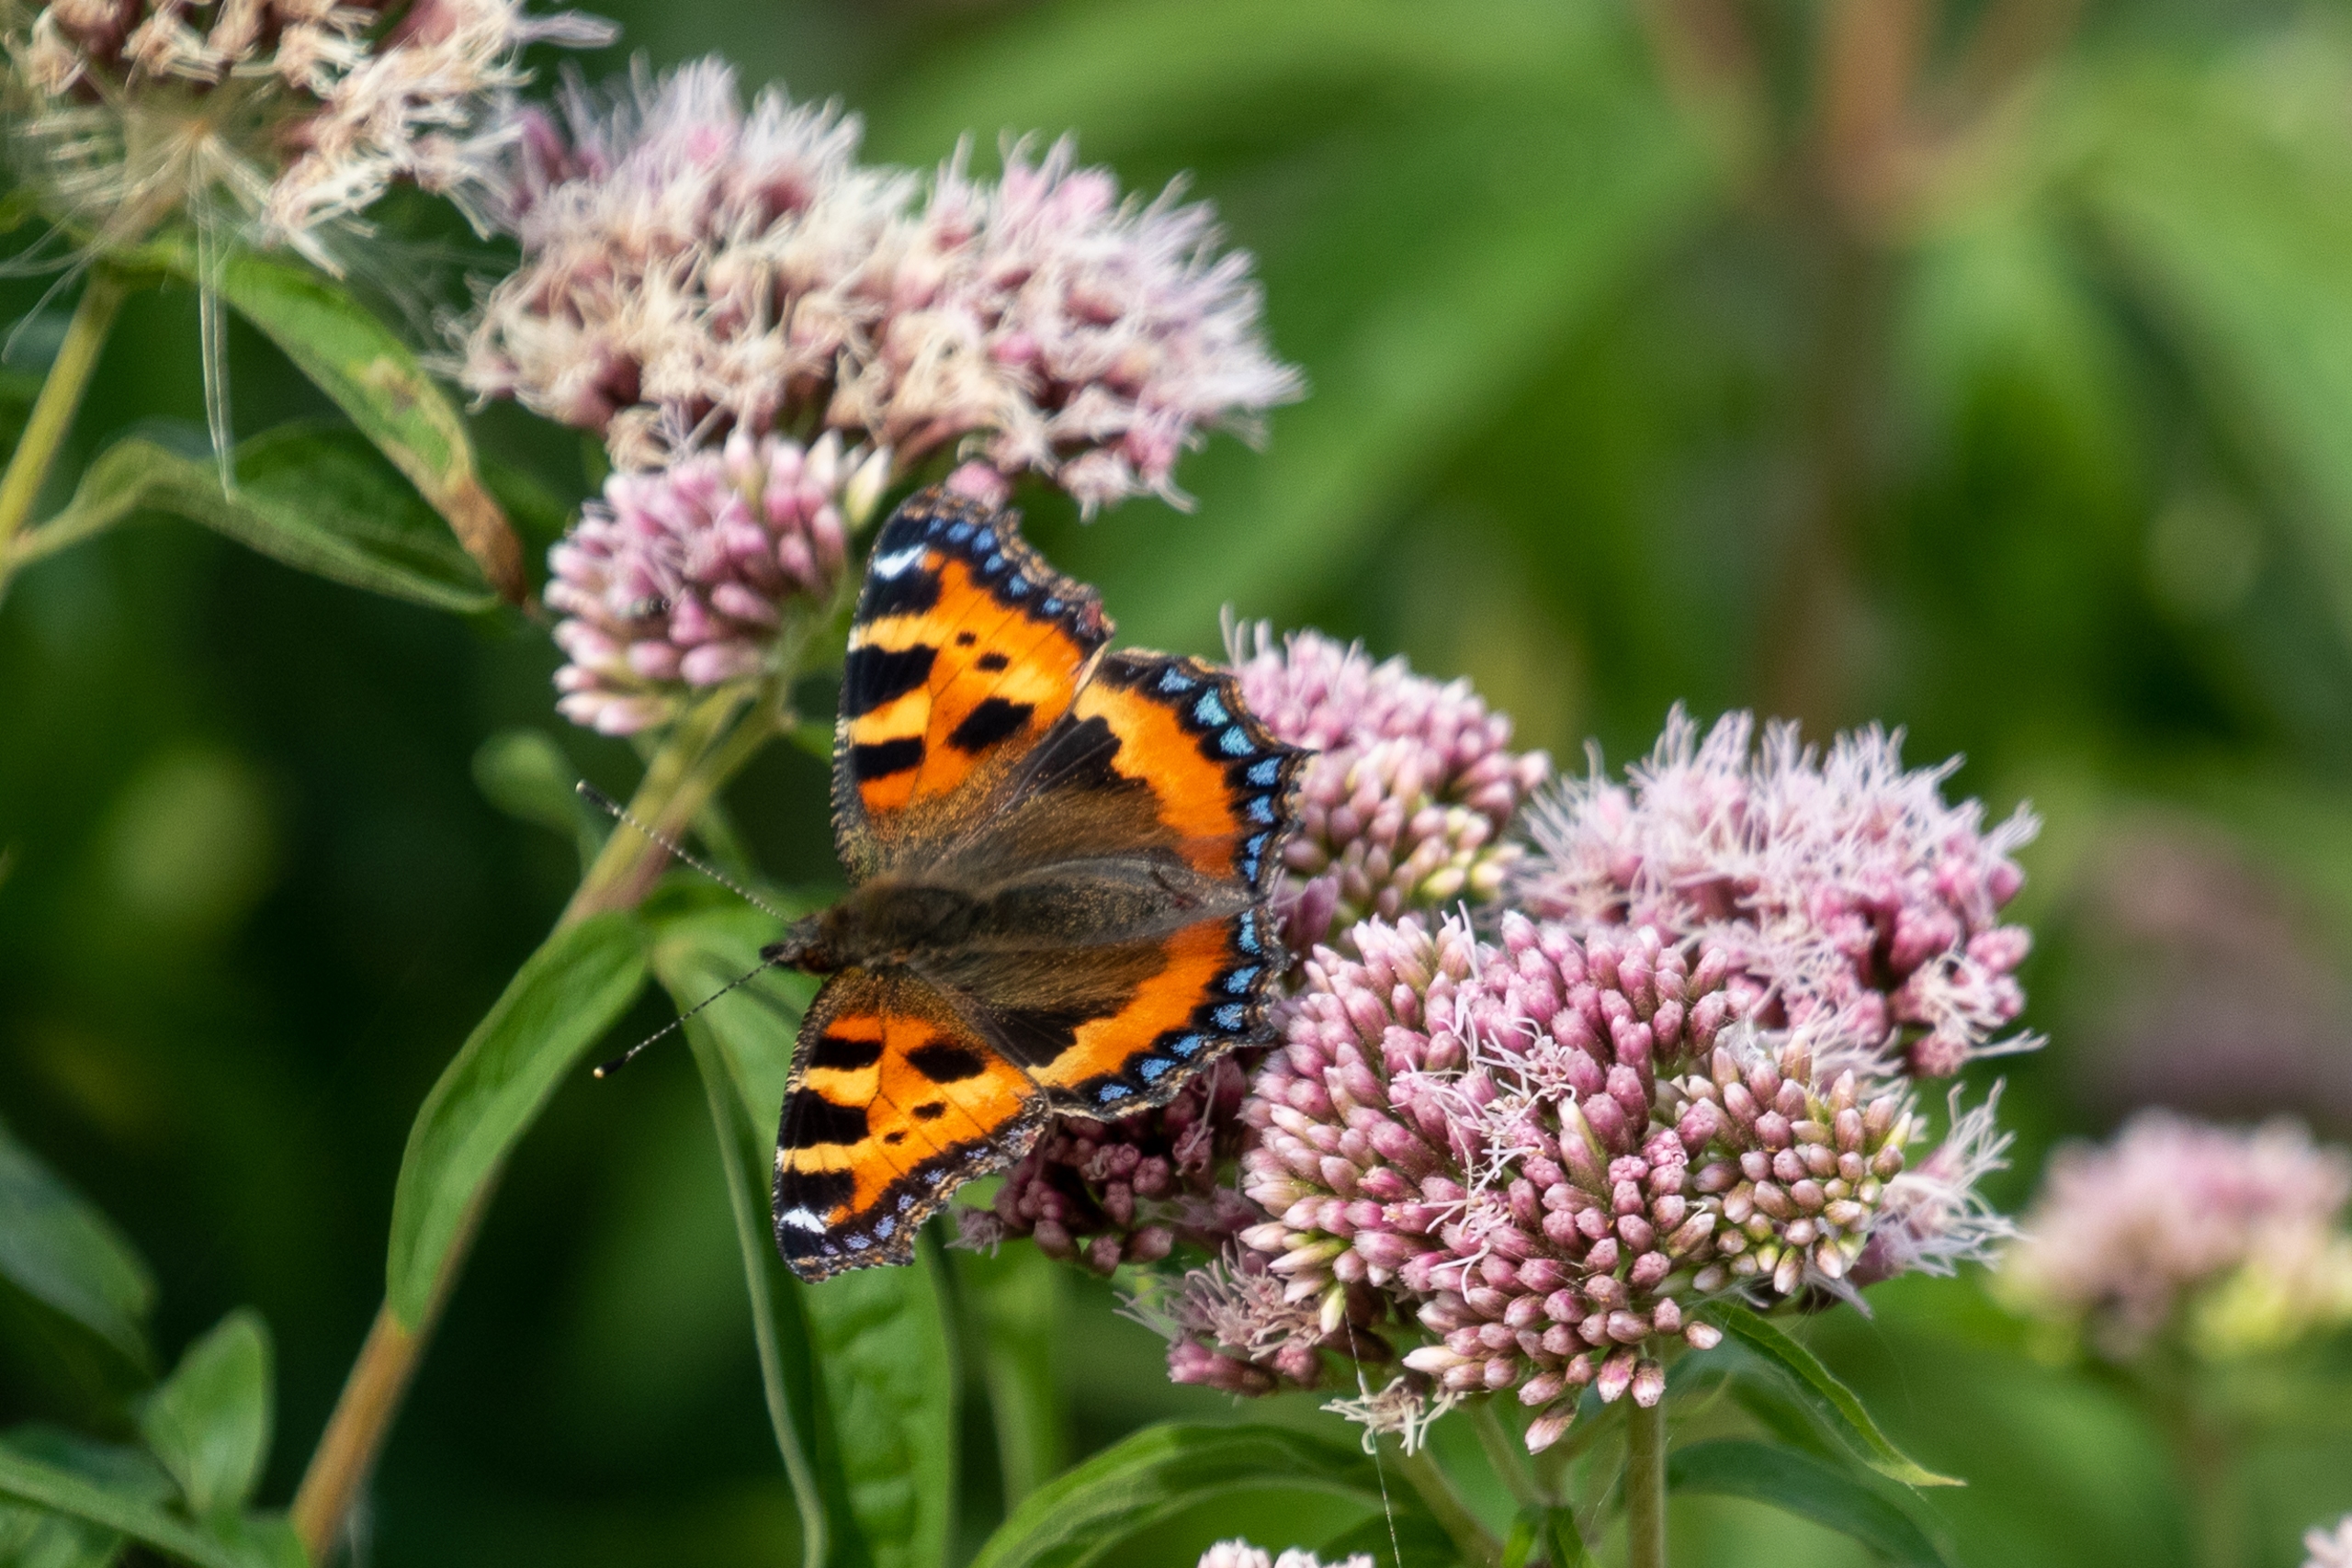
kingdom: Animalia
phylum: Arthropoda
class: Insecta
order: Lepidoptera
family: Nymphalidae
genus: Aglais
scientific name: Aglais urticae
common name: Nældens takvinge
